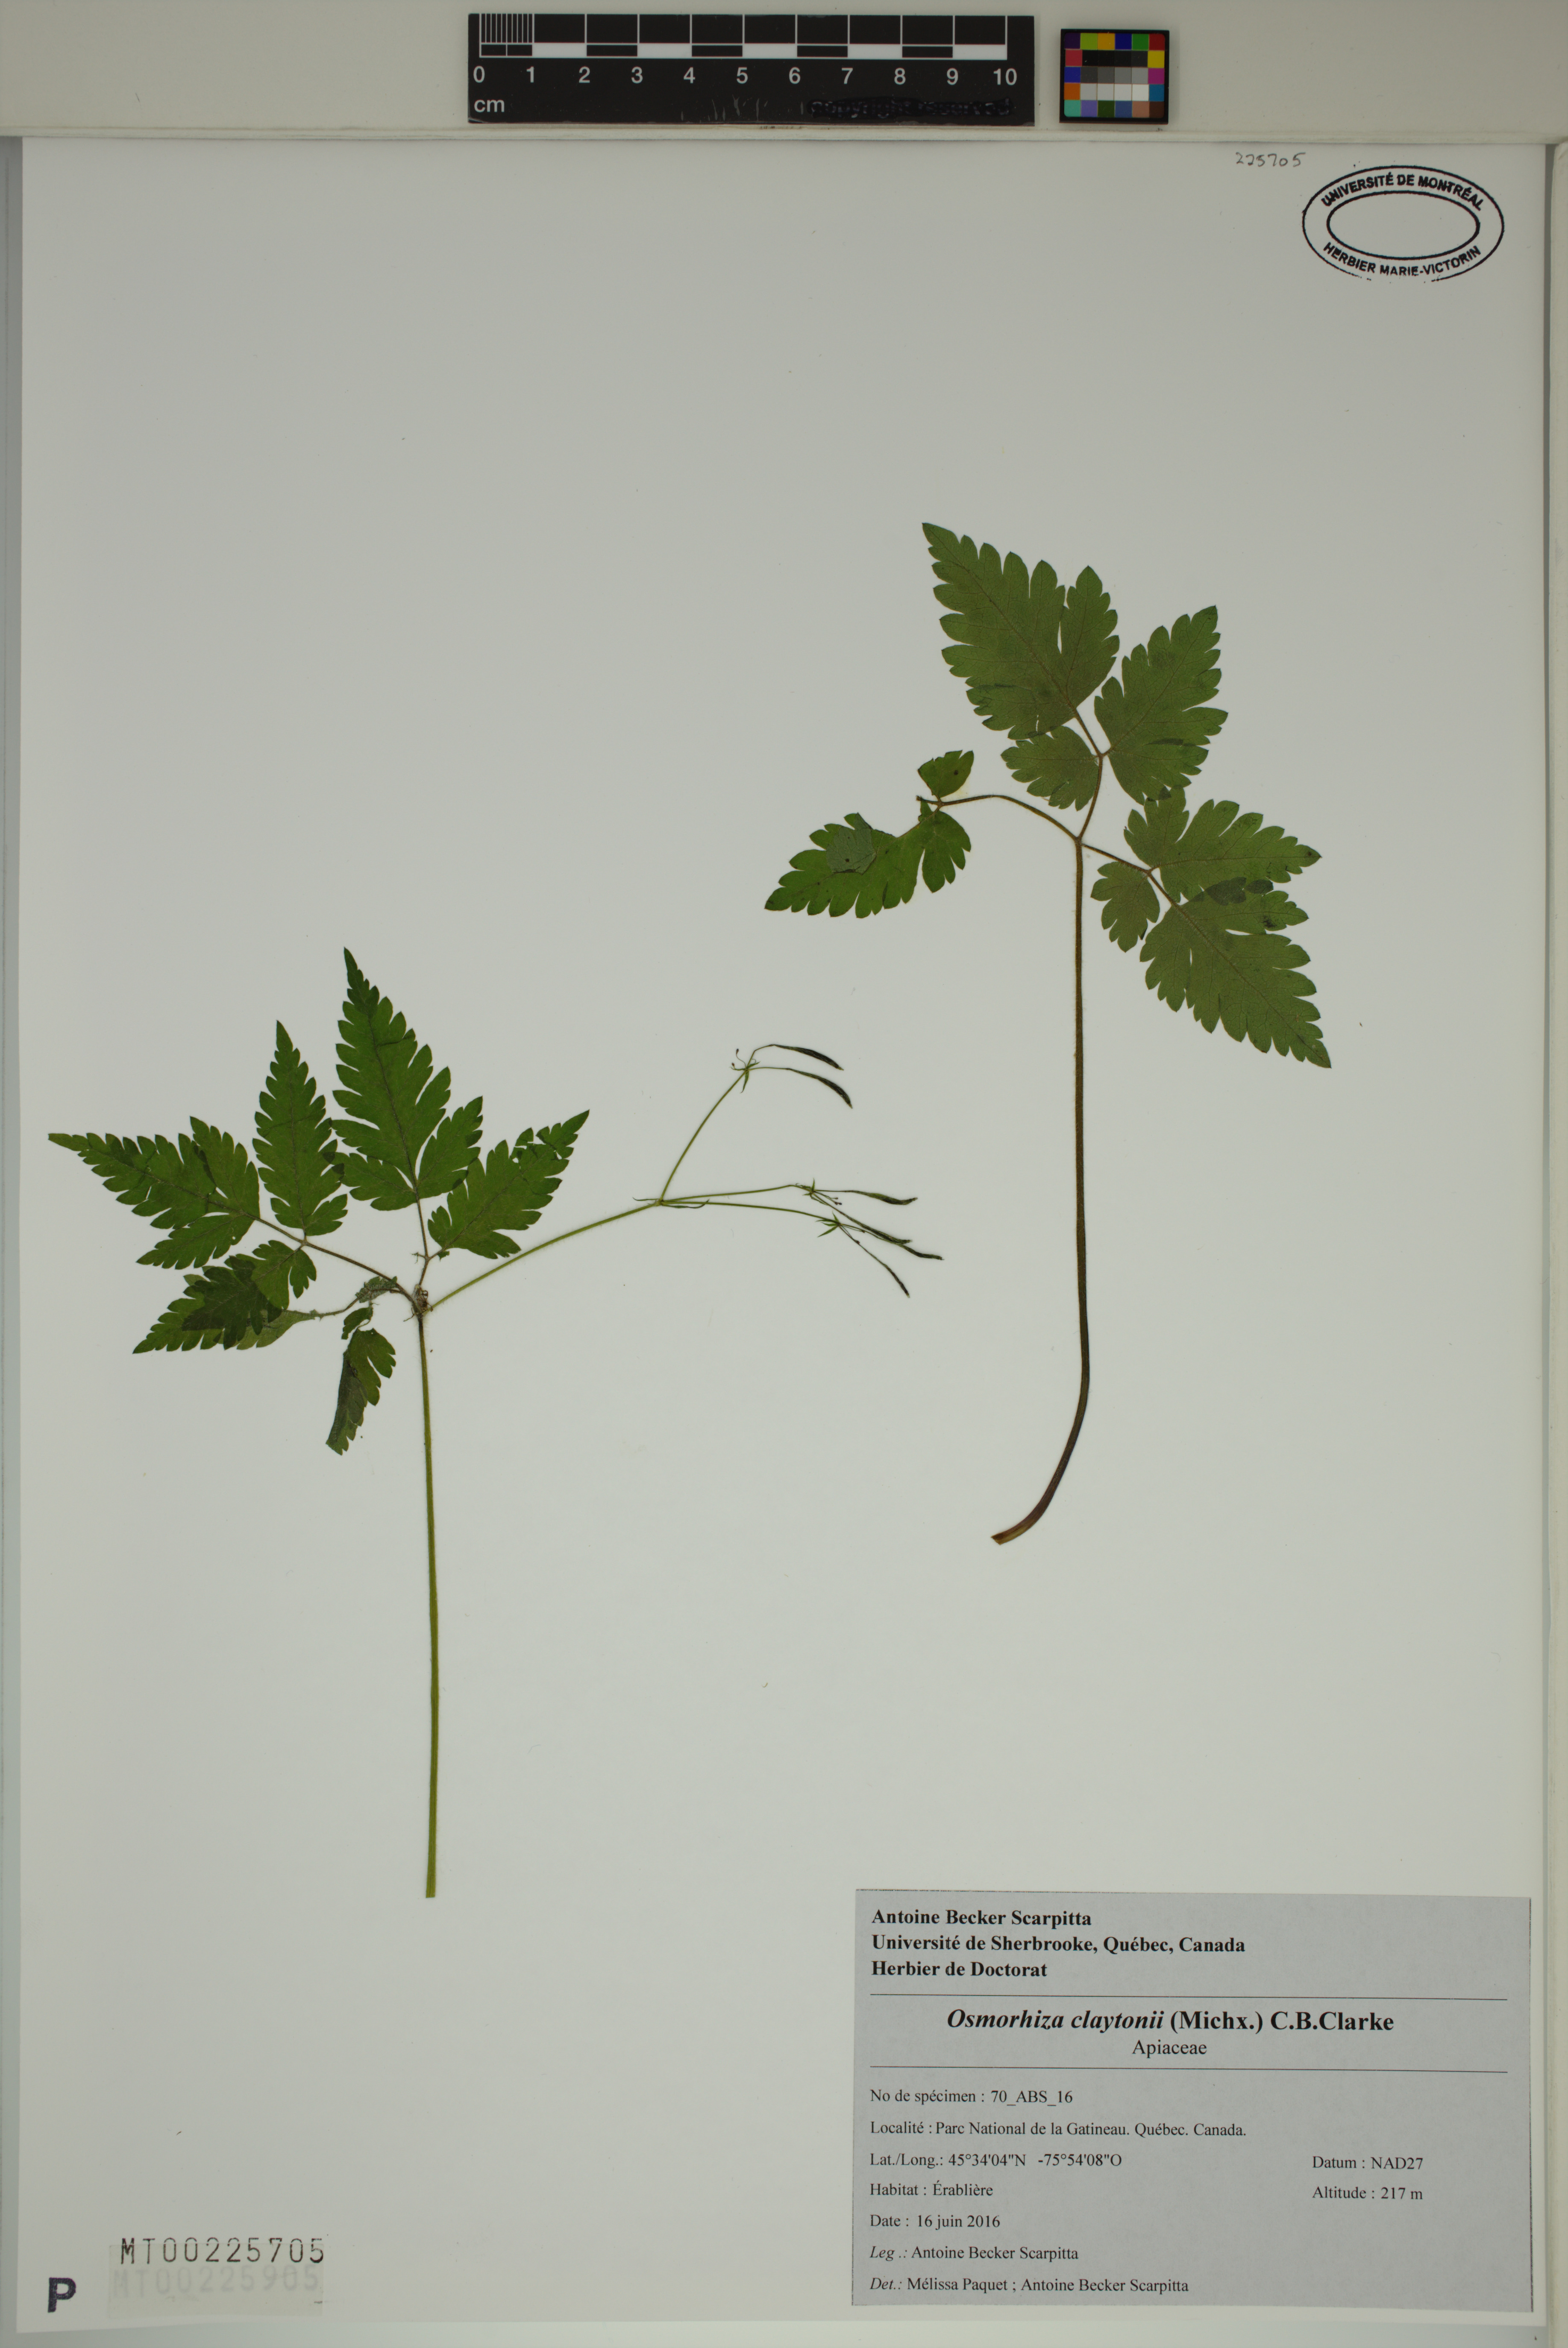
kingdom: Plantae
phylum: Tracheophyta
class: Magnoliopsida
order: Apiales
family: Apiaceae
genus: Osmorhiza
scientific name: Osmorhiza claytonii
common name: Hairy sweet cicely
